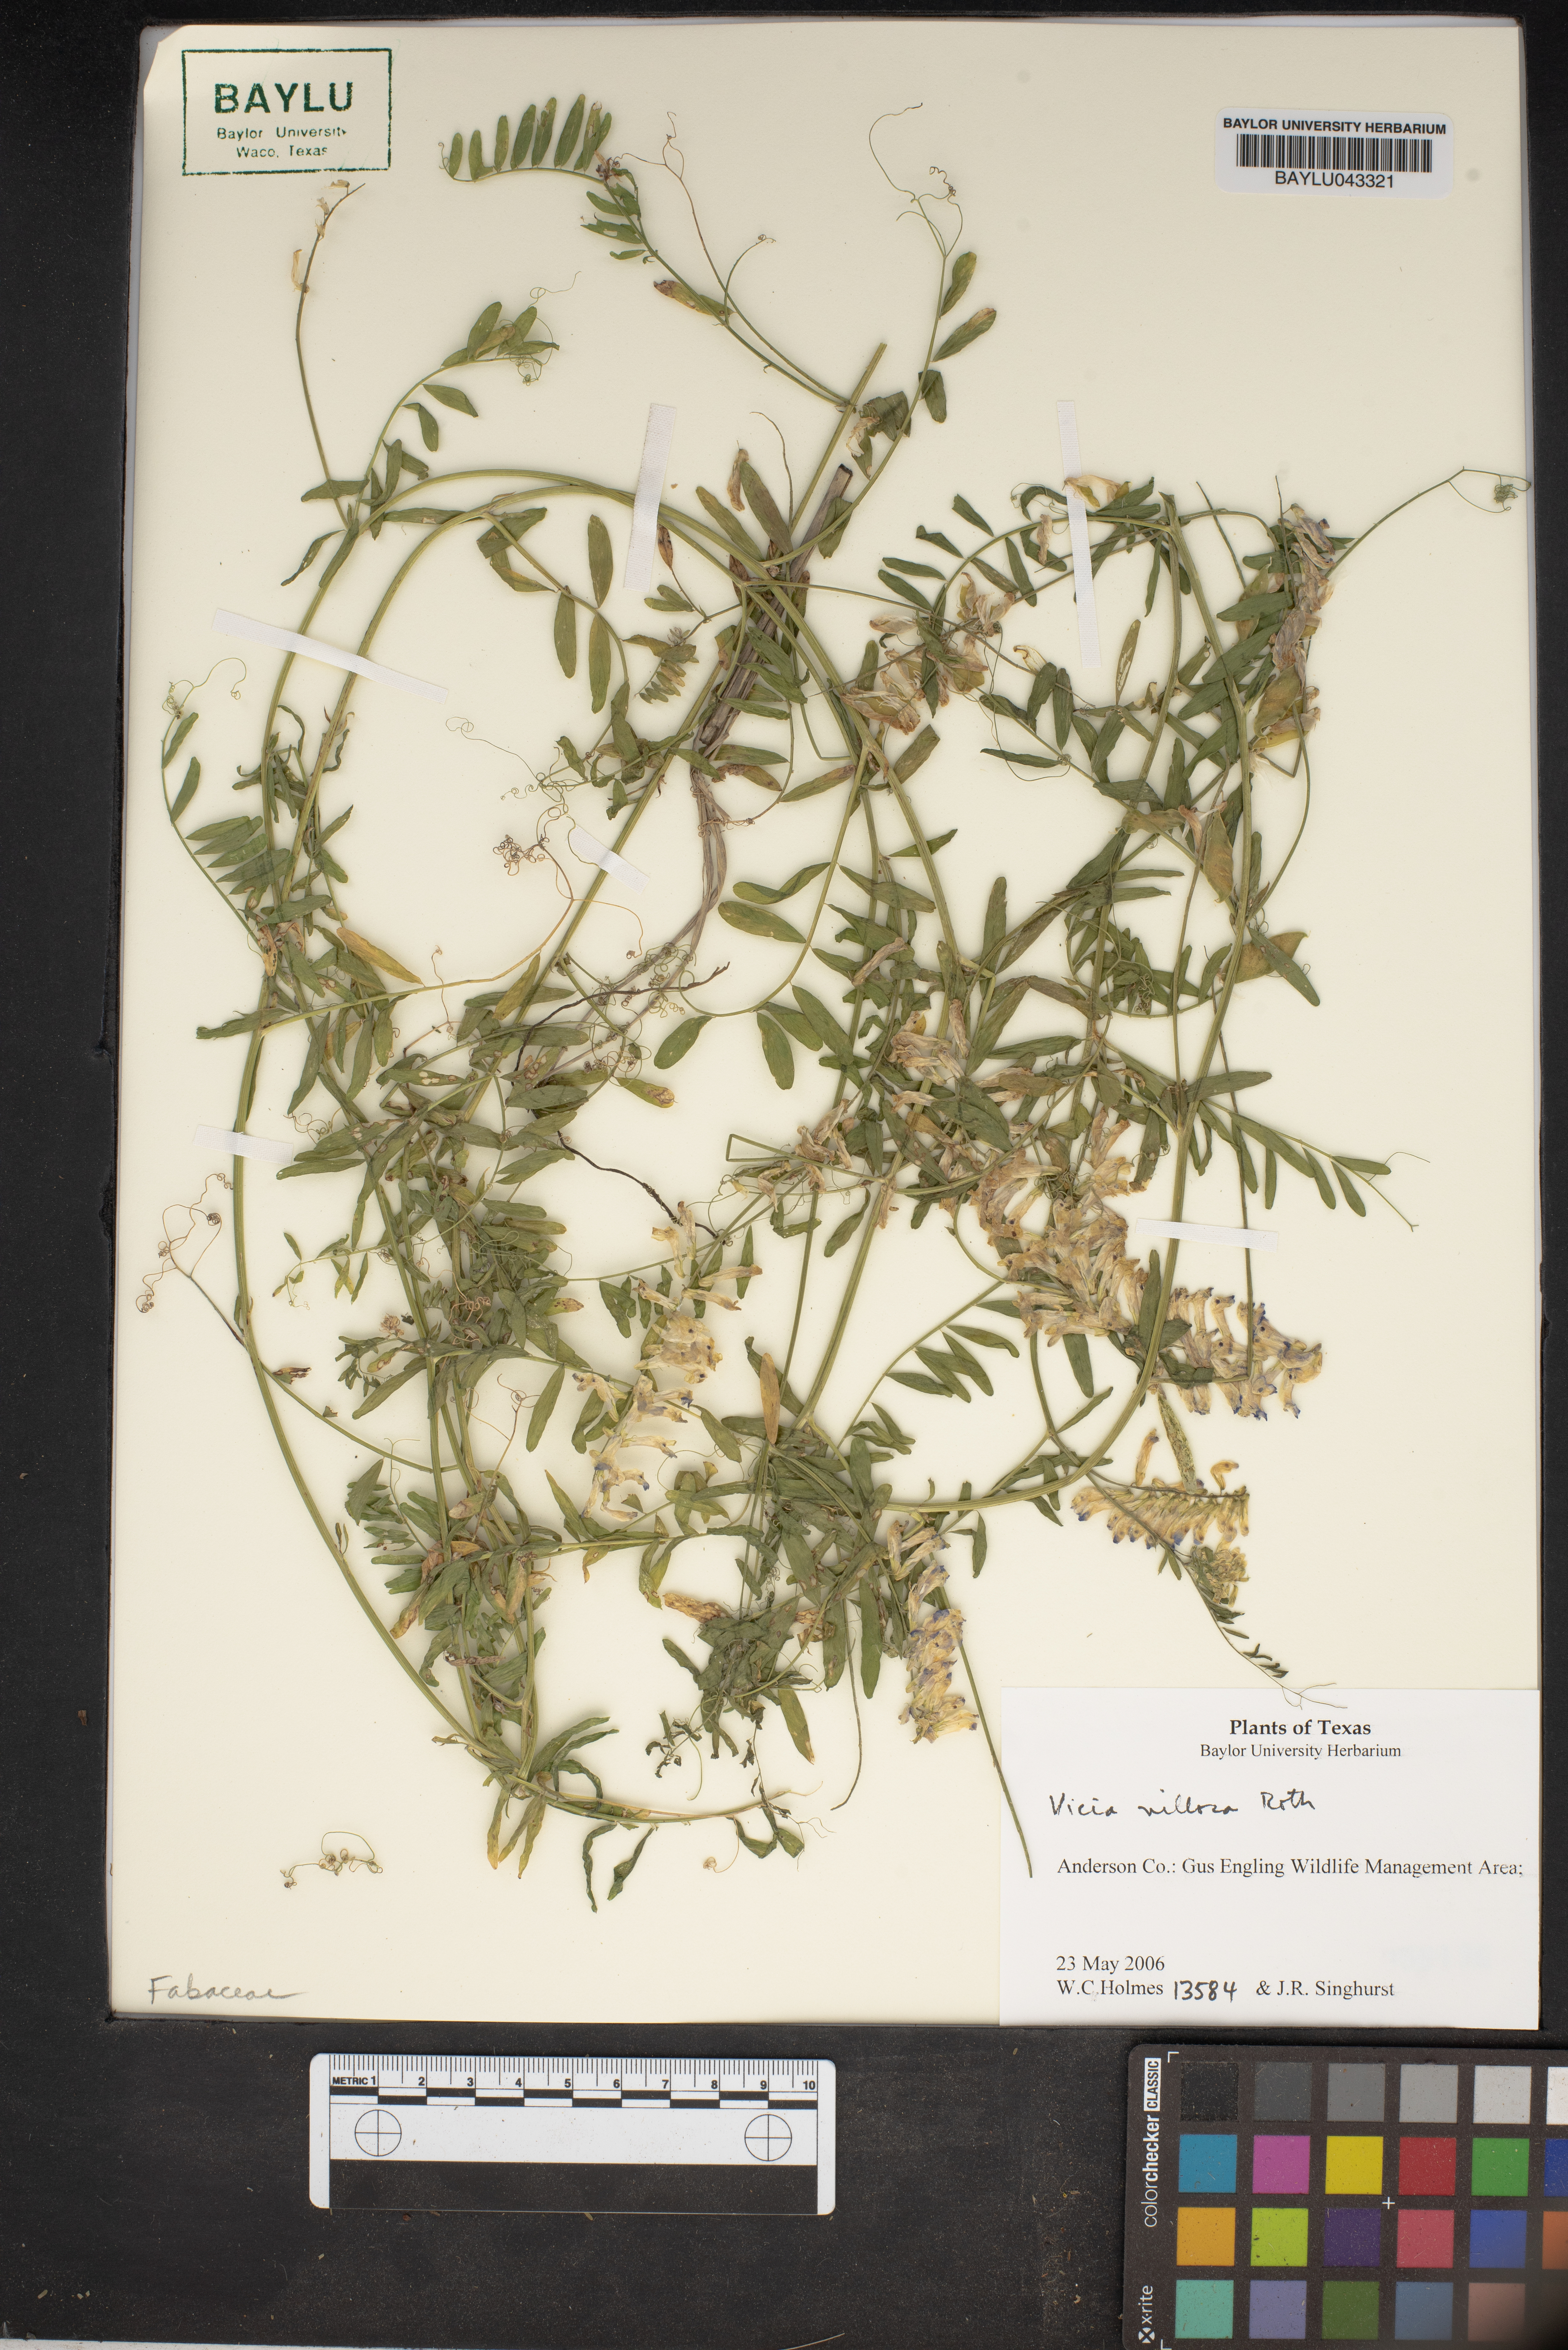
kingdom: Plantae
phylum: Tracheophyta
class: Magnoliopsida
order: Fabales
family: Fabaceae
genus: Vicia
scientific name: Vicia villosa
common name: Fodder vetch
